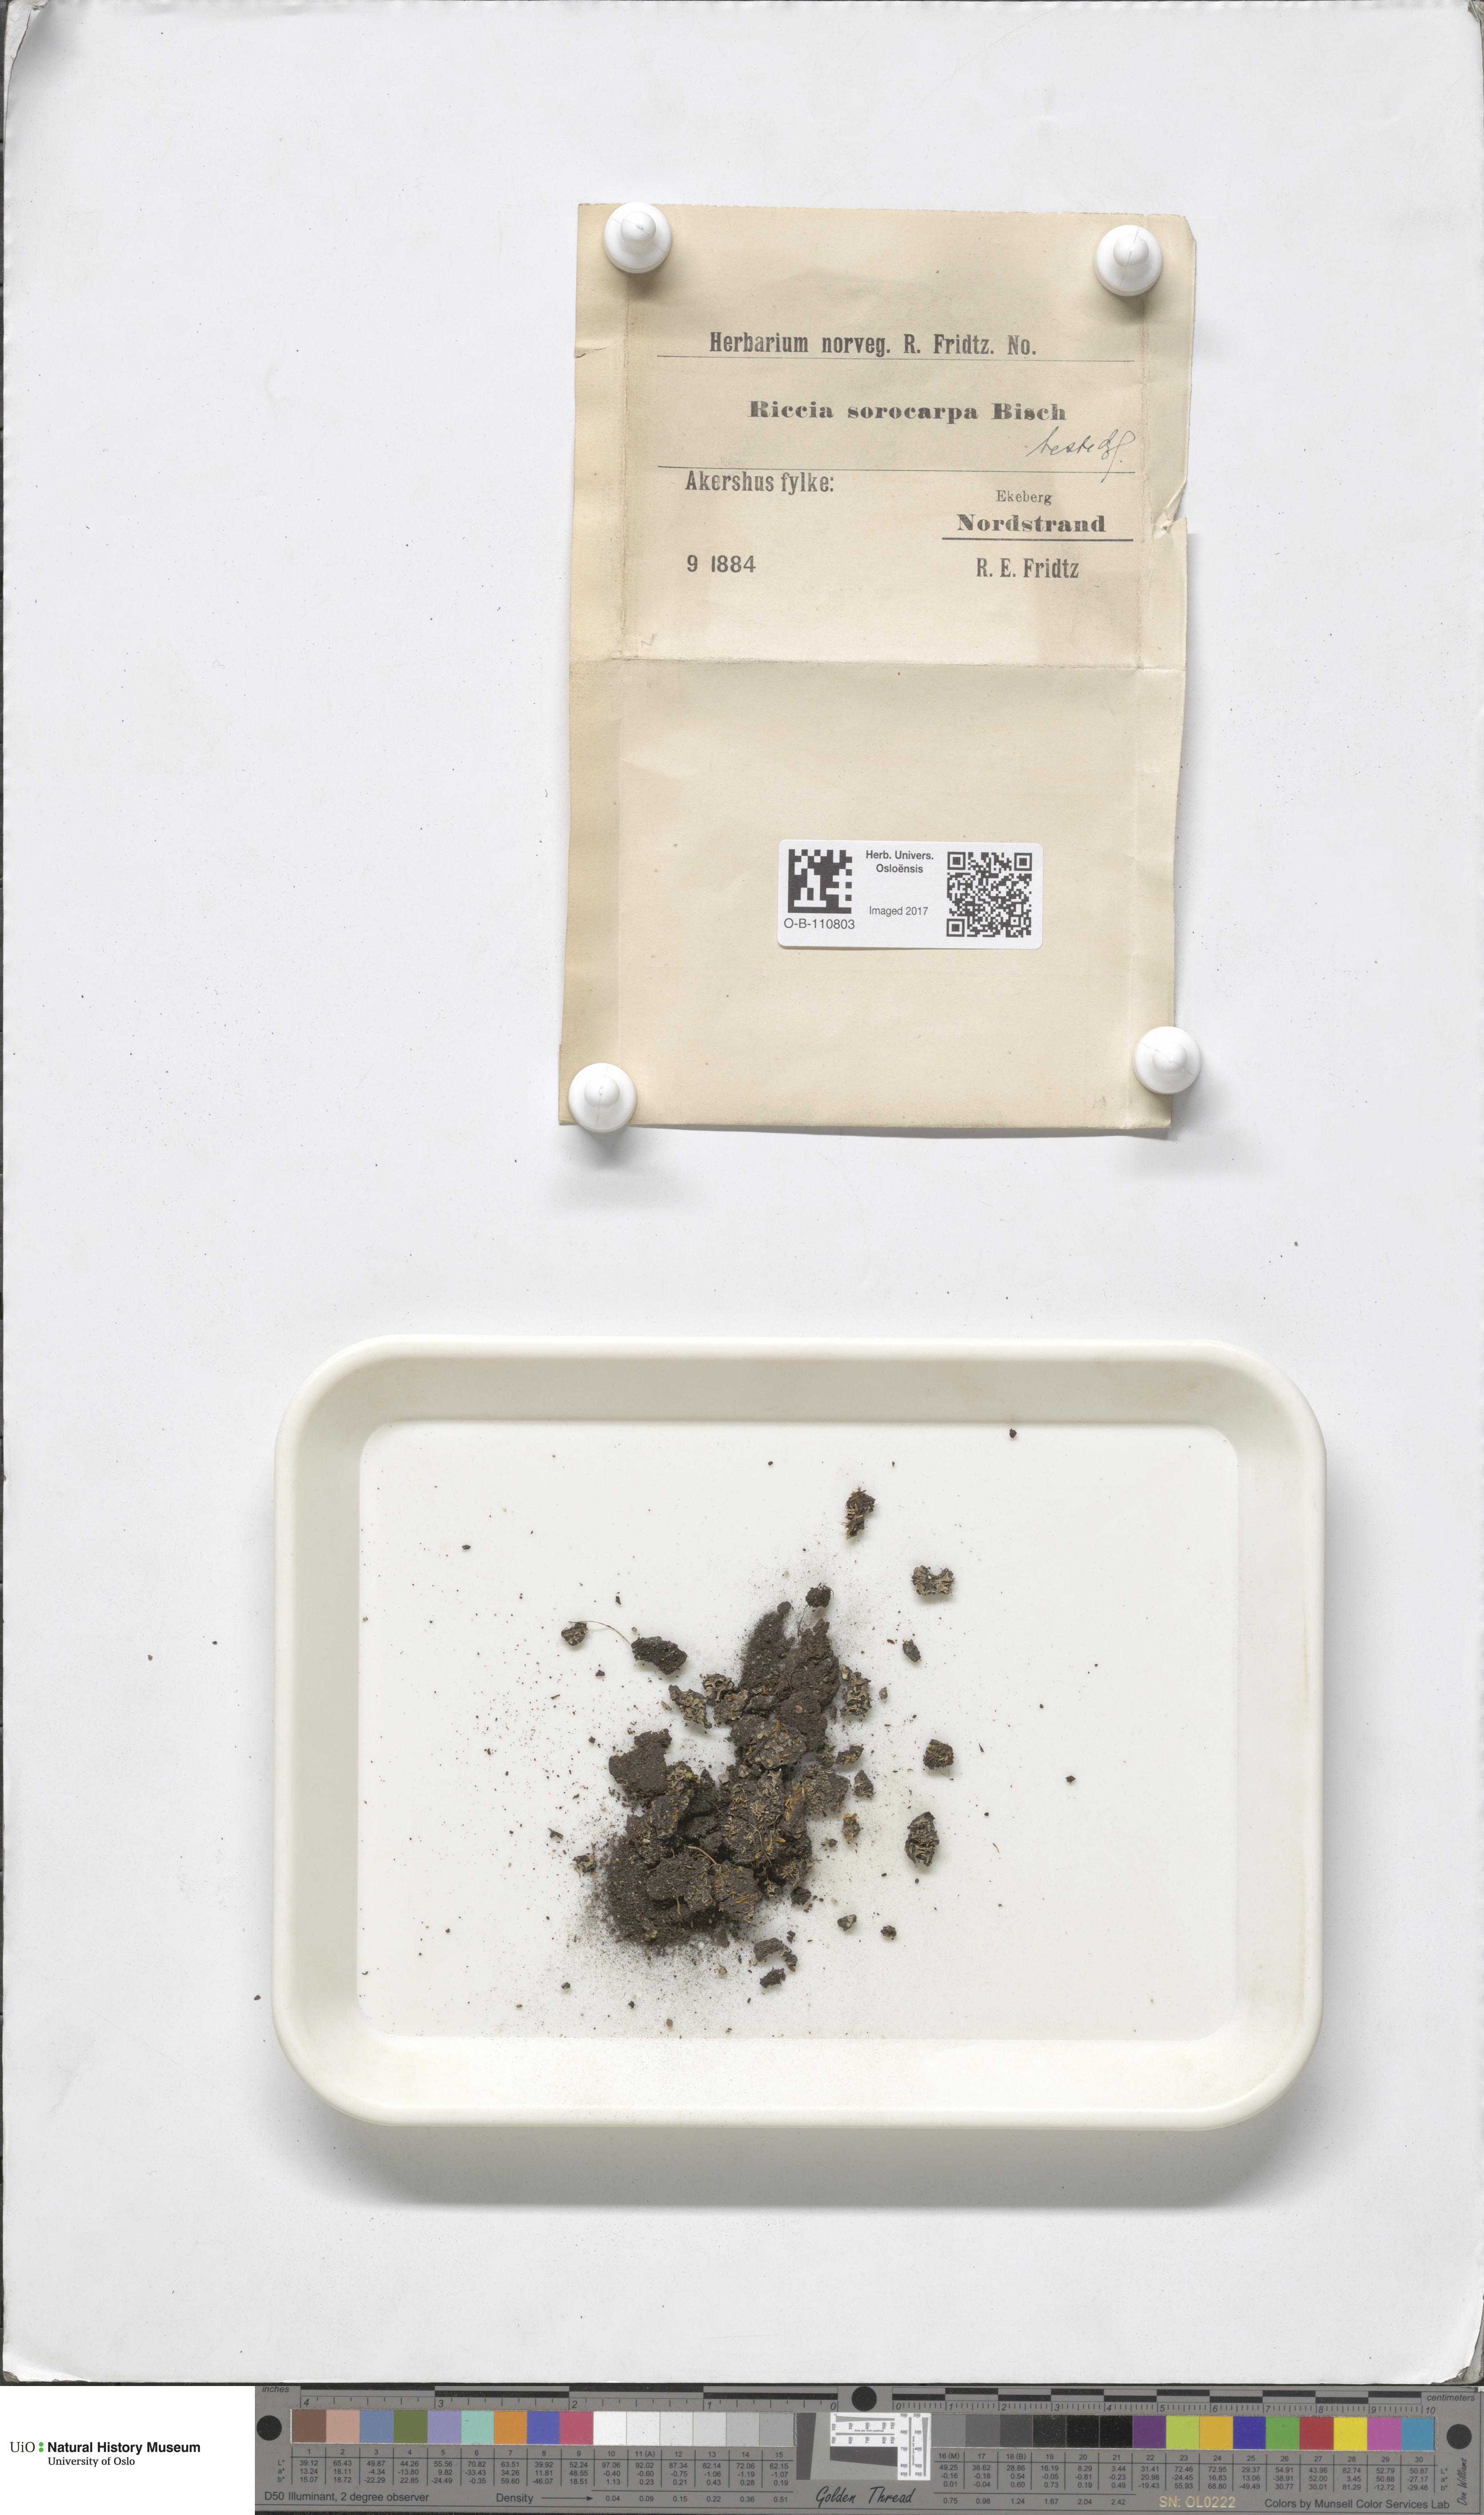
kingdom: Plantae
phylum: Marchantiophyta
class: Marchantiopsida
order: Marchantiales
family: Ricciaceae
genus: Riccia
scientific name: Riccia sorocarpa
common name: Common crystalwort
